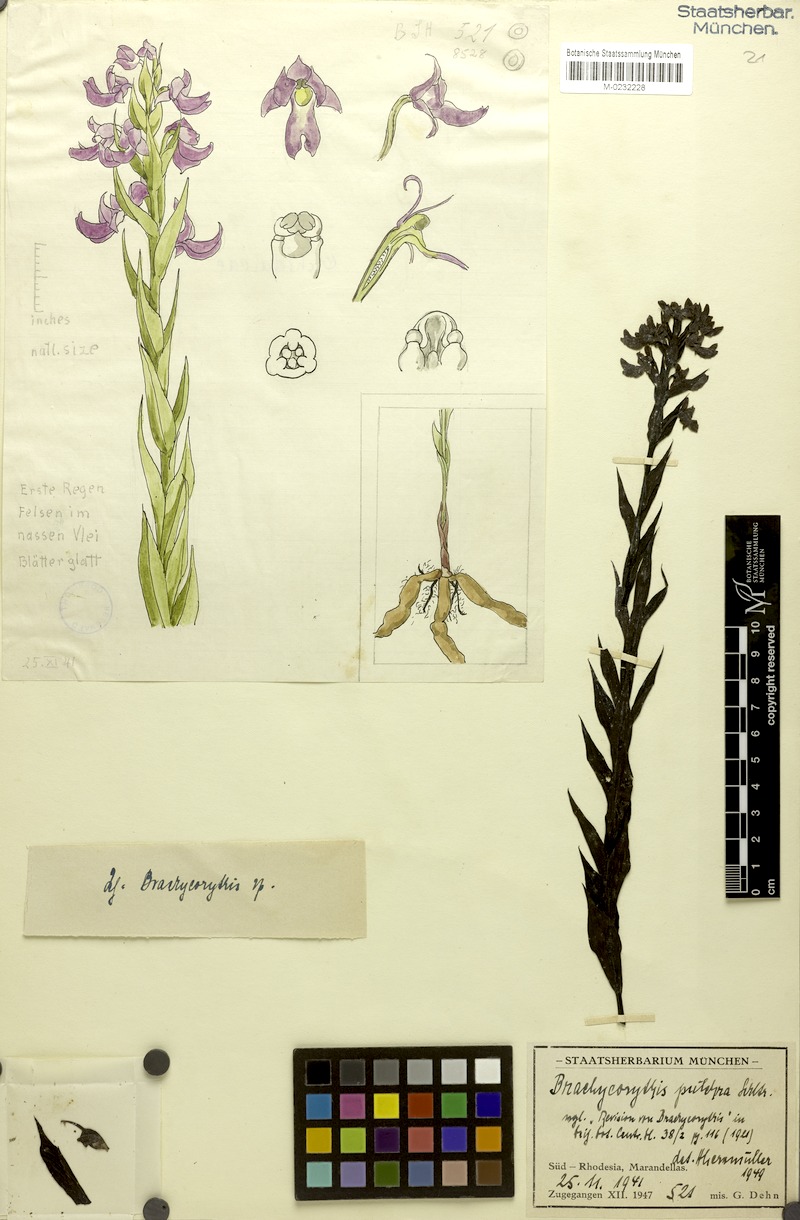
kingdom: Plantae
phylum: Tracheophyta
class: Liliopsida
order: Asparagales
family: Orchidaceae
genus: Brachycorythis
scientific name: Brachycorythis pleistophylla
